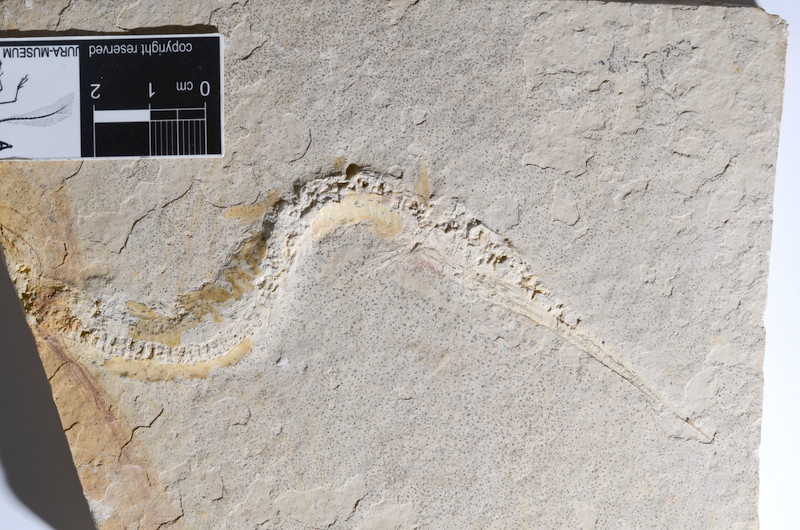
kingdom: Animalia
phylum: Chordata
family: Aspidorhynchidae
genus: Belonostomus
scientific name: Belonostomus tenuirostris
